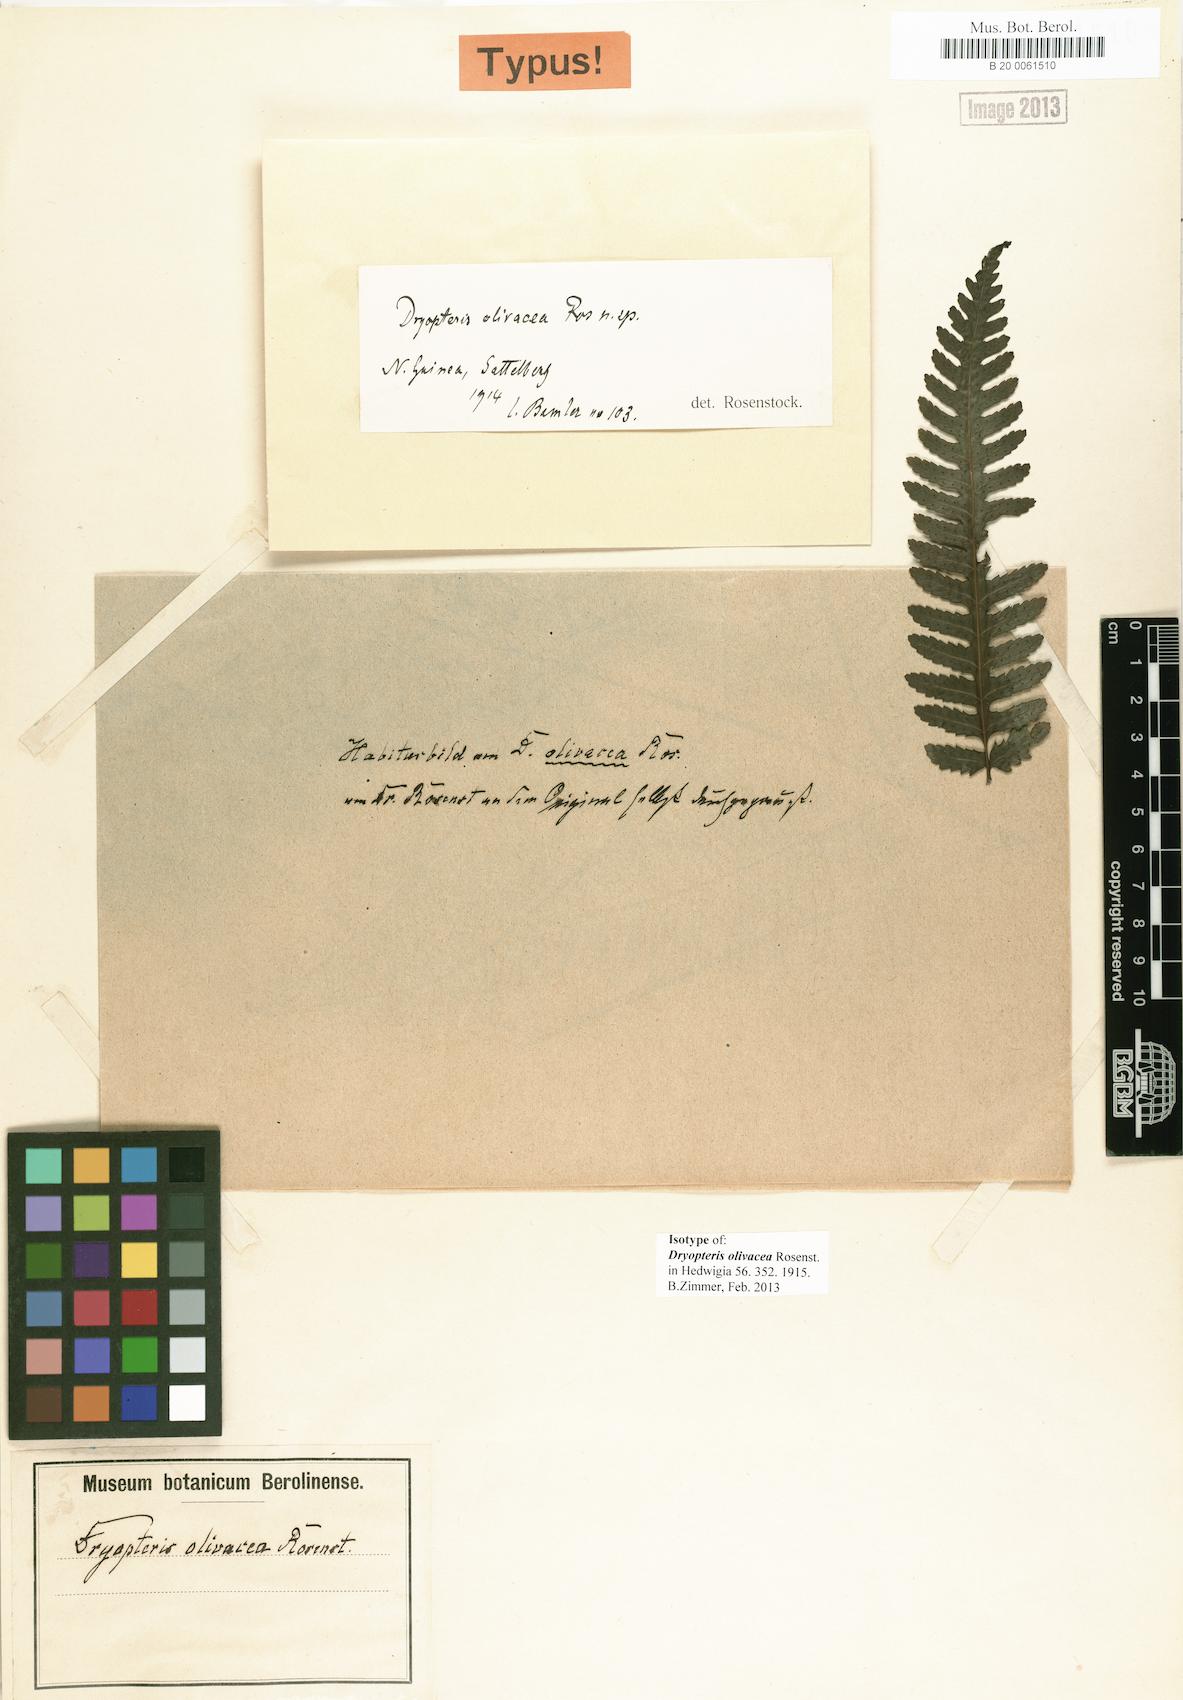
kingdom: Plantae
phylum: Tracheophyta
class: Polypodiopsida
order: Polypodiales
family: Tectariaceae
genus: Pteridrys
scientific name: Pteridrys olivacea
